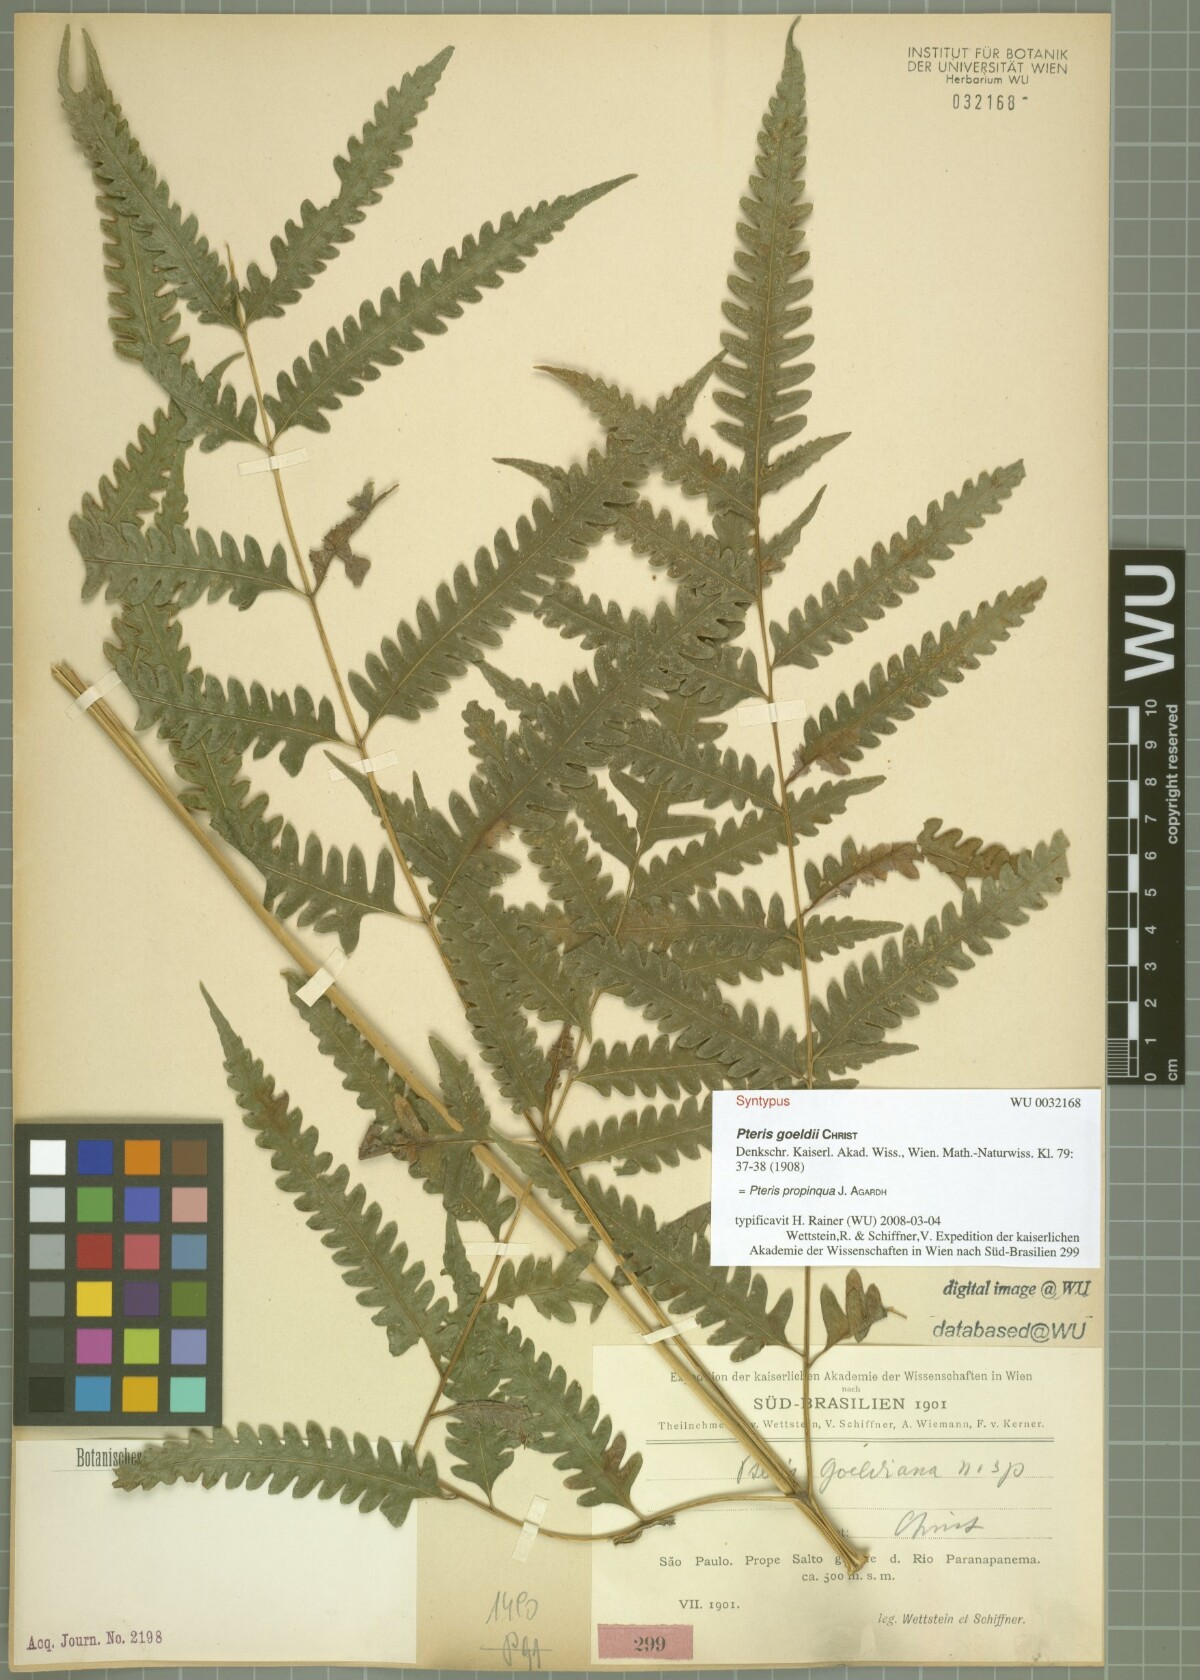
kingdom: Plantae
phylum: Tracheophyta
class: Polypodiopsida
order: Polypodiales
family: Pteridaceae
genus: Pteris
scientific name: Pteris propinqua
